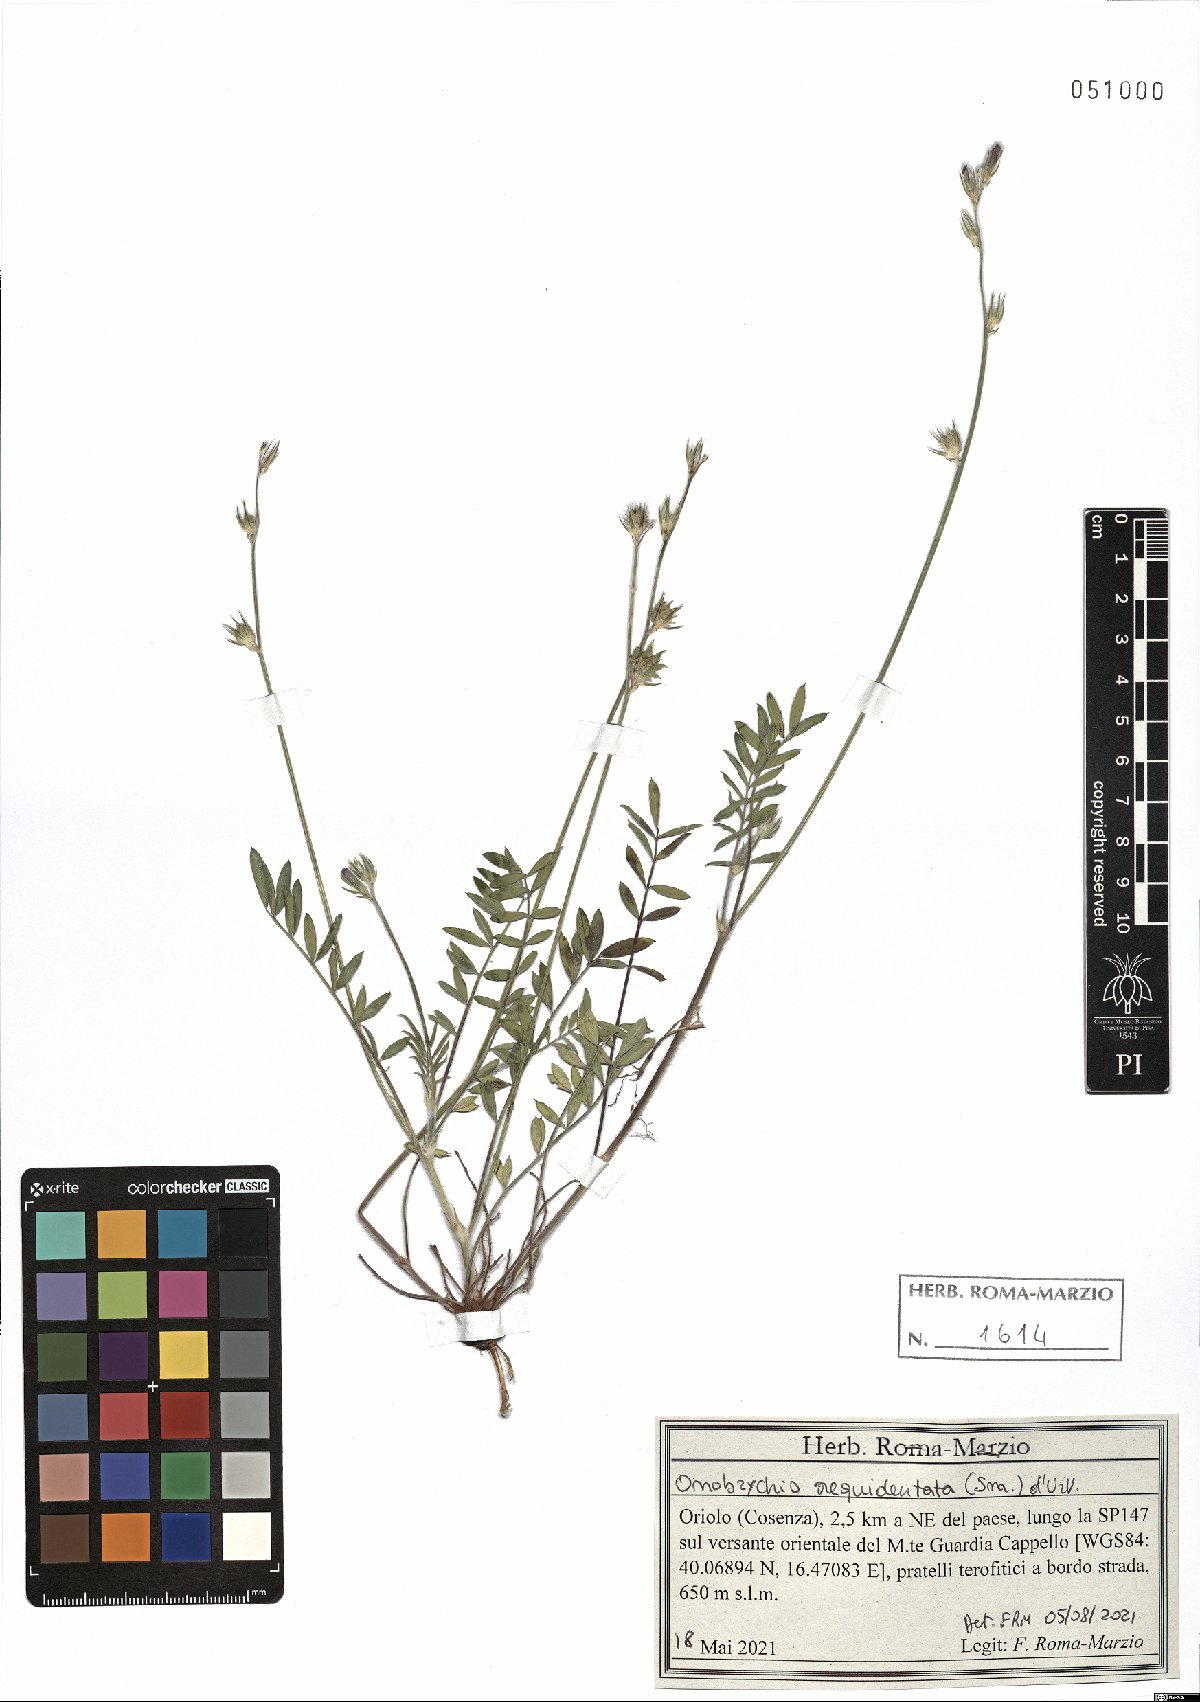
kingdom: Plantae
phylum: Tracheophyta
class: Magnoliopsida
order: Fabales
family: Fabaceae
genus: Onobrychis
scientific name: Onobrychis aequidentata
